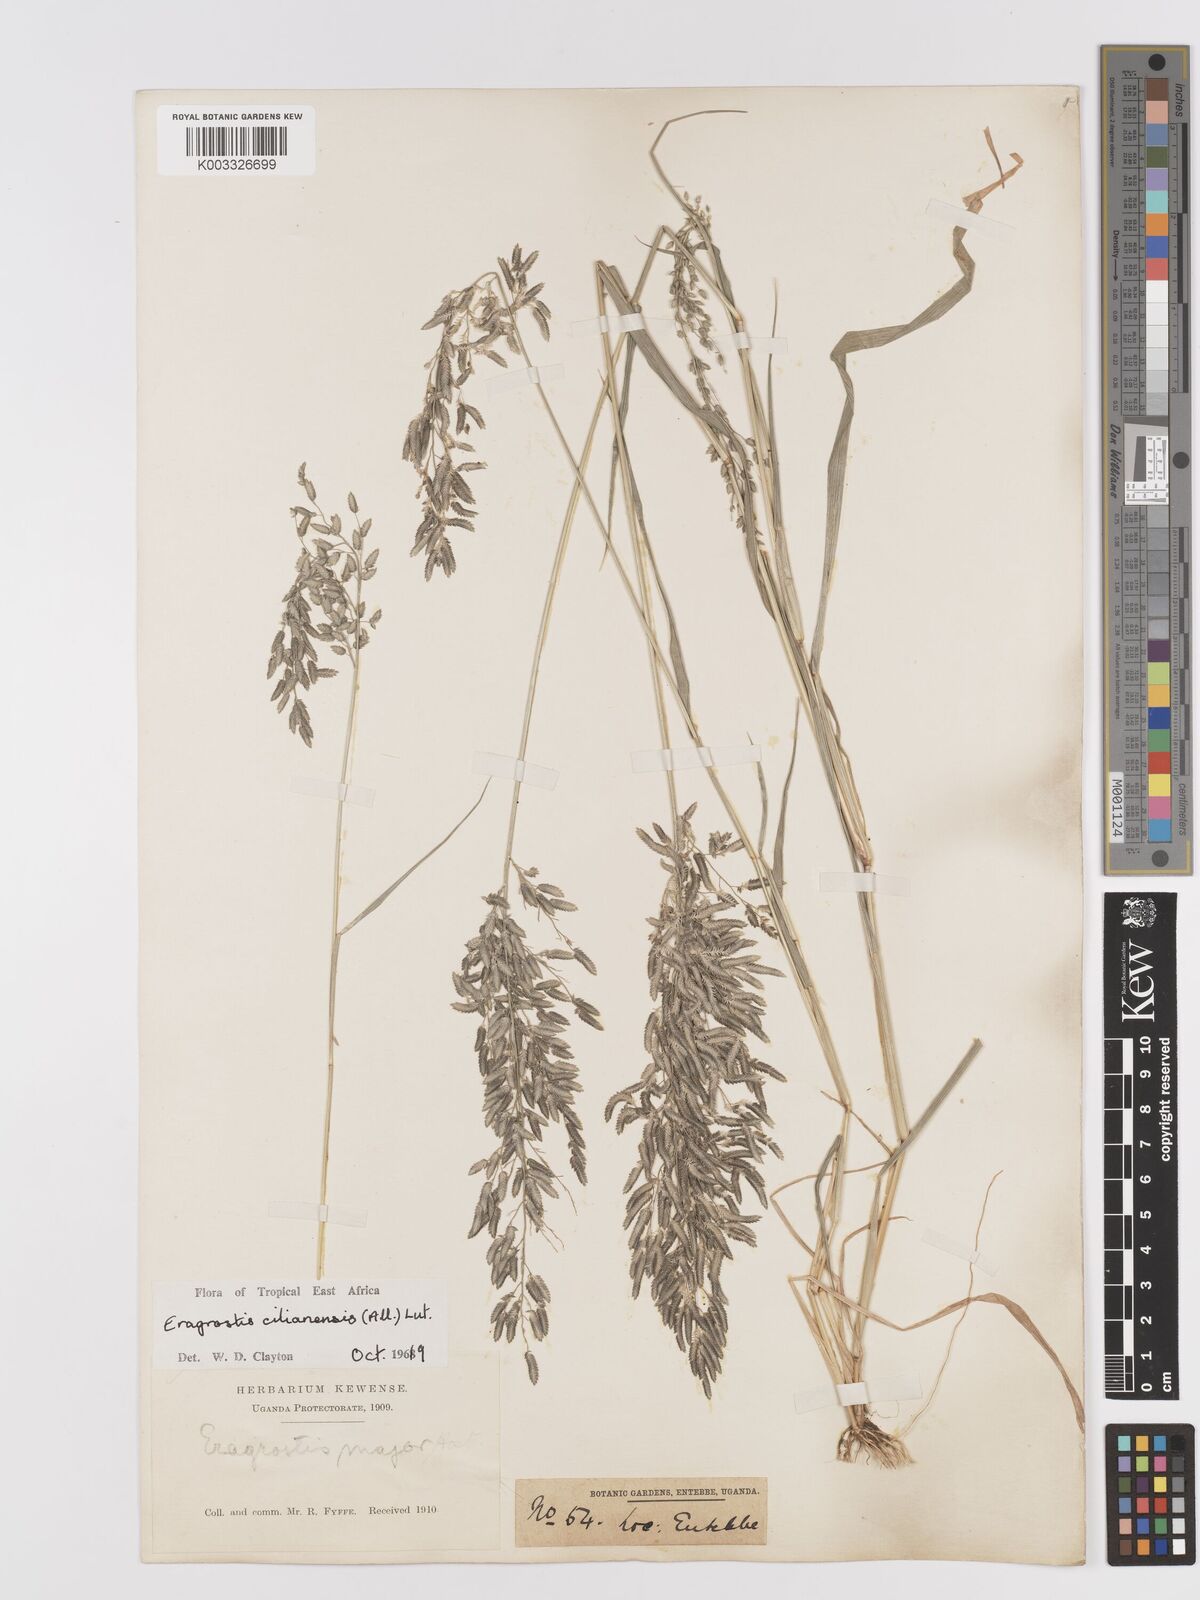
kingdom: Plantae
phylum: Tracheophyta
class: Liliopsida
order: Poales
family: Poaceae
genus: Eragrostis
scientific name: Eragrostis cilianensis
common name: Stinkgrass
